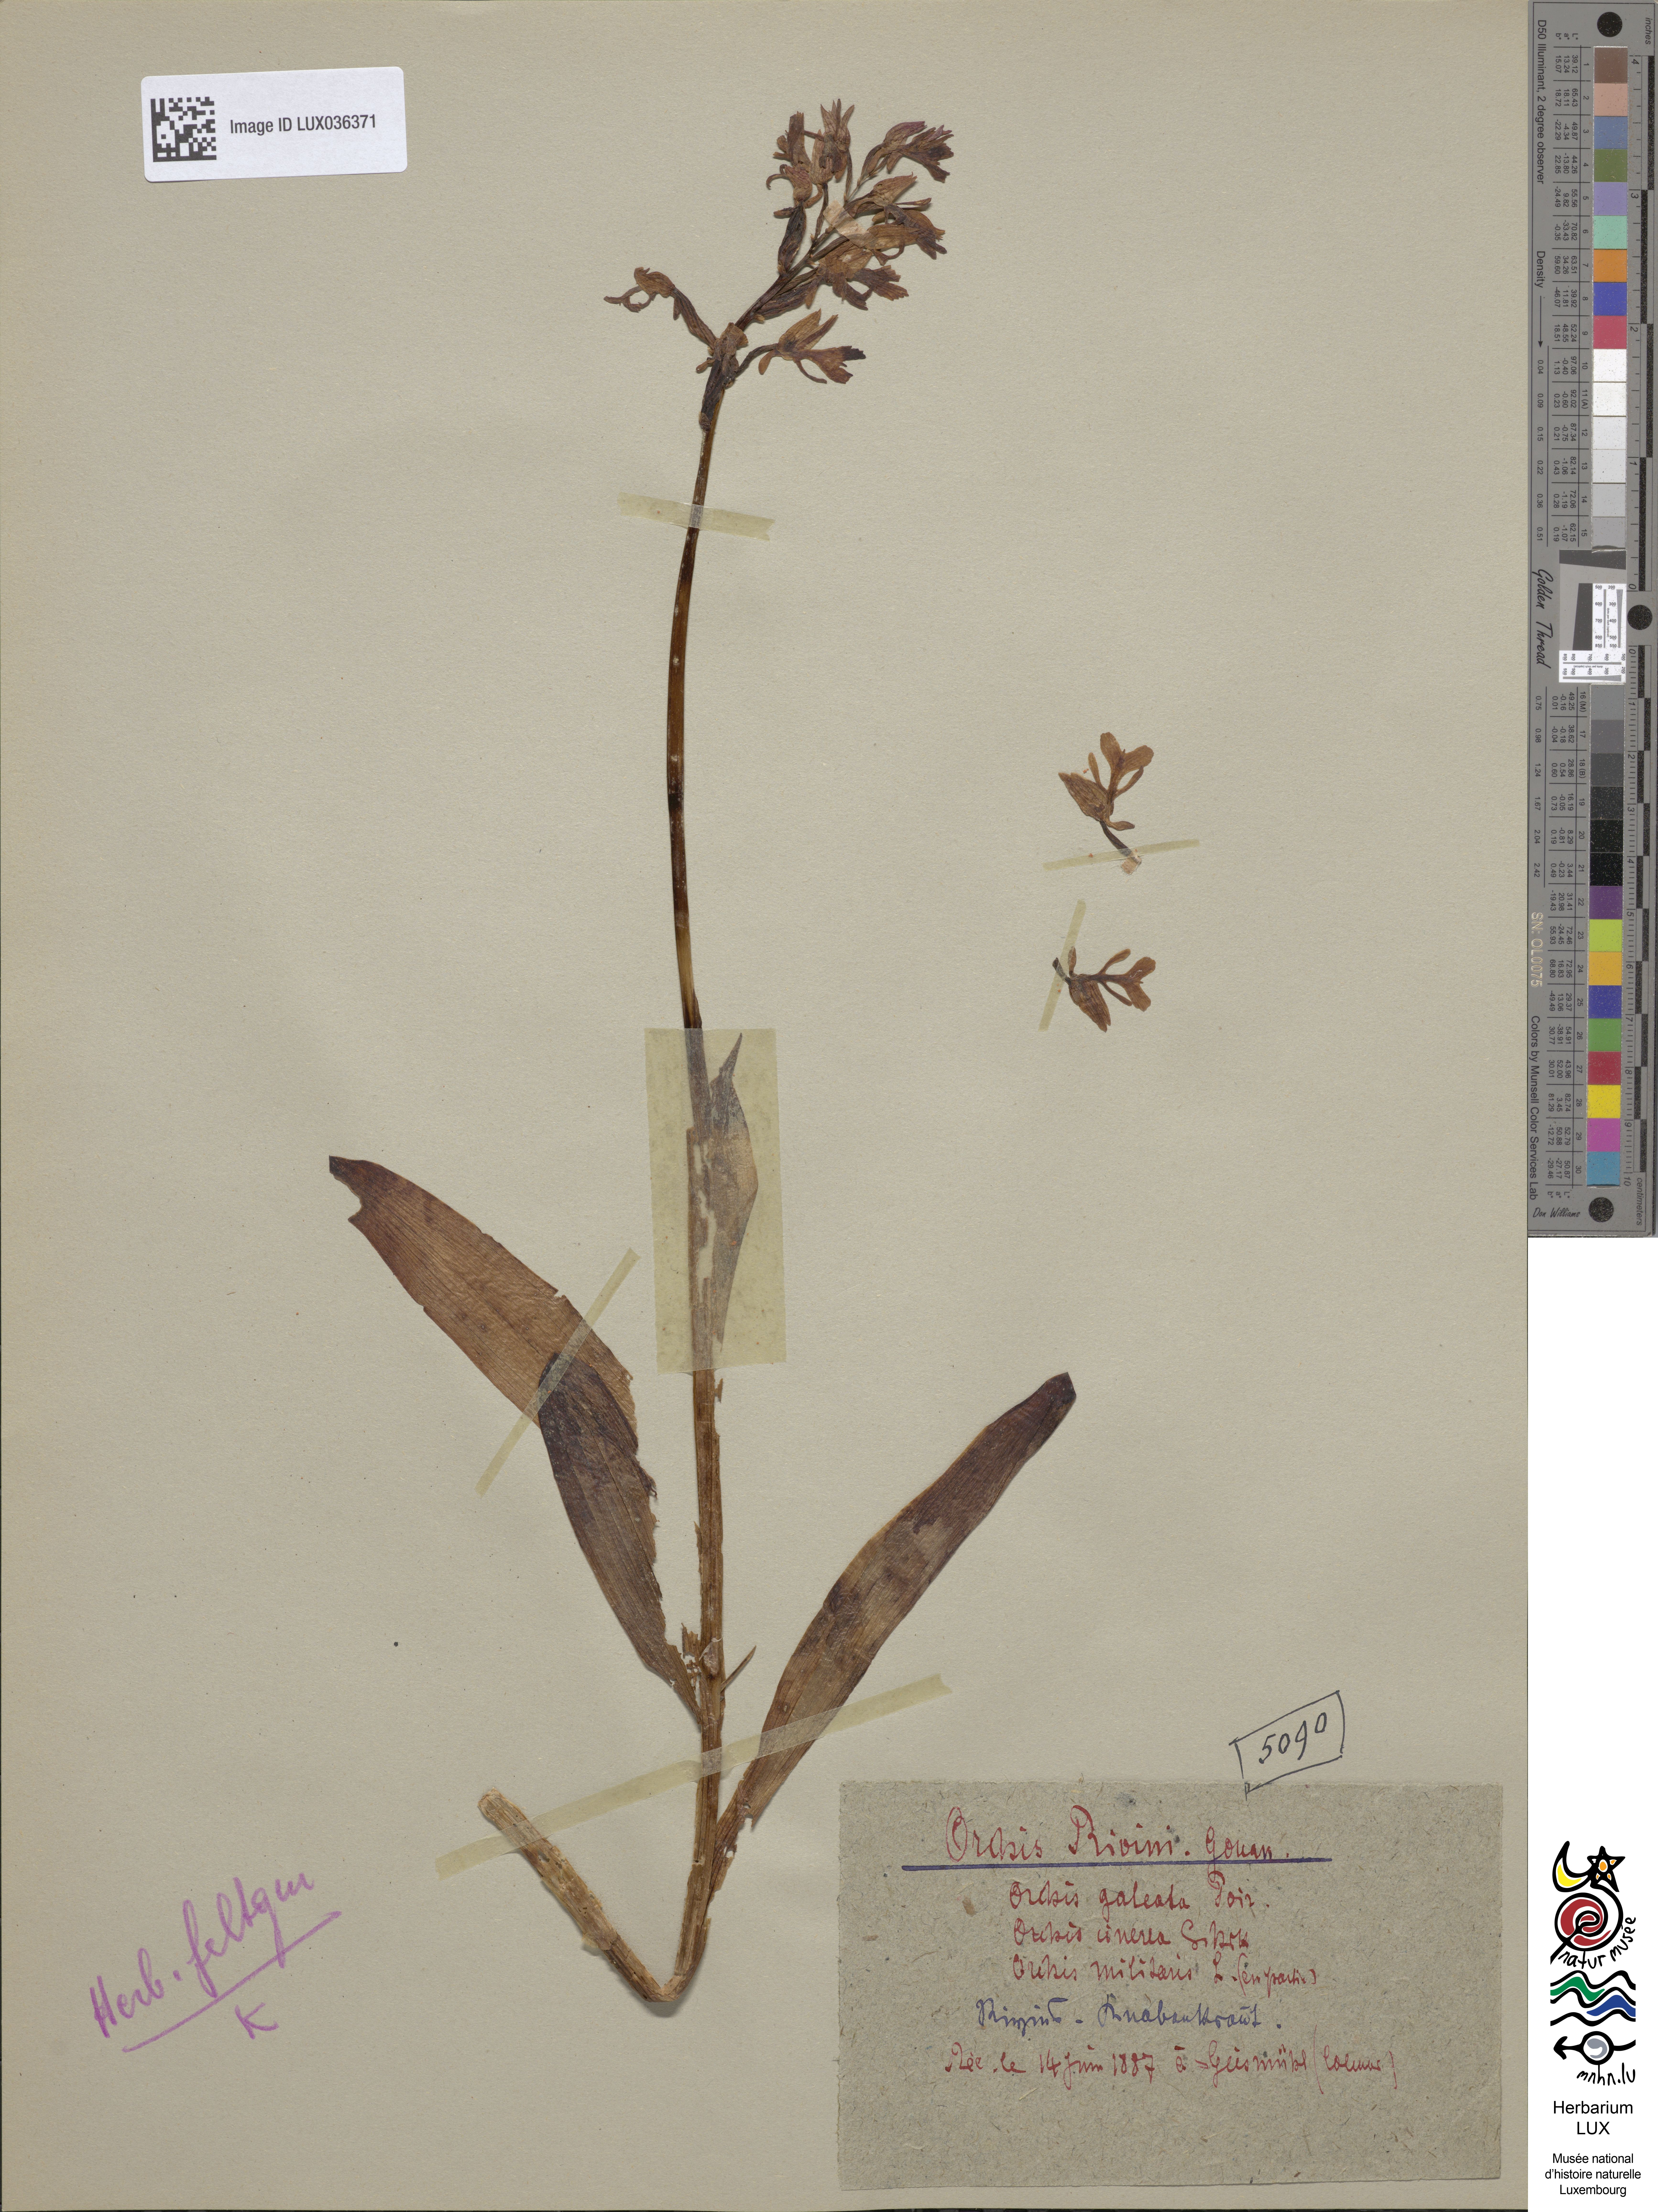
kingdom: Plantae
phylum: Tracheophyta
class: Liliopsida
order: Asparagales
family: Orchidaceae
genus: Orchis
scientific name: Orchis militaris
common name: Military orchid
